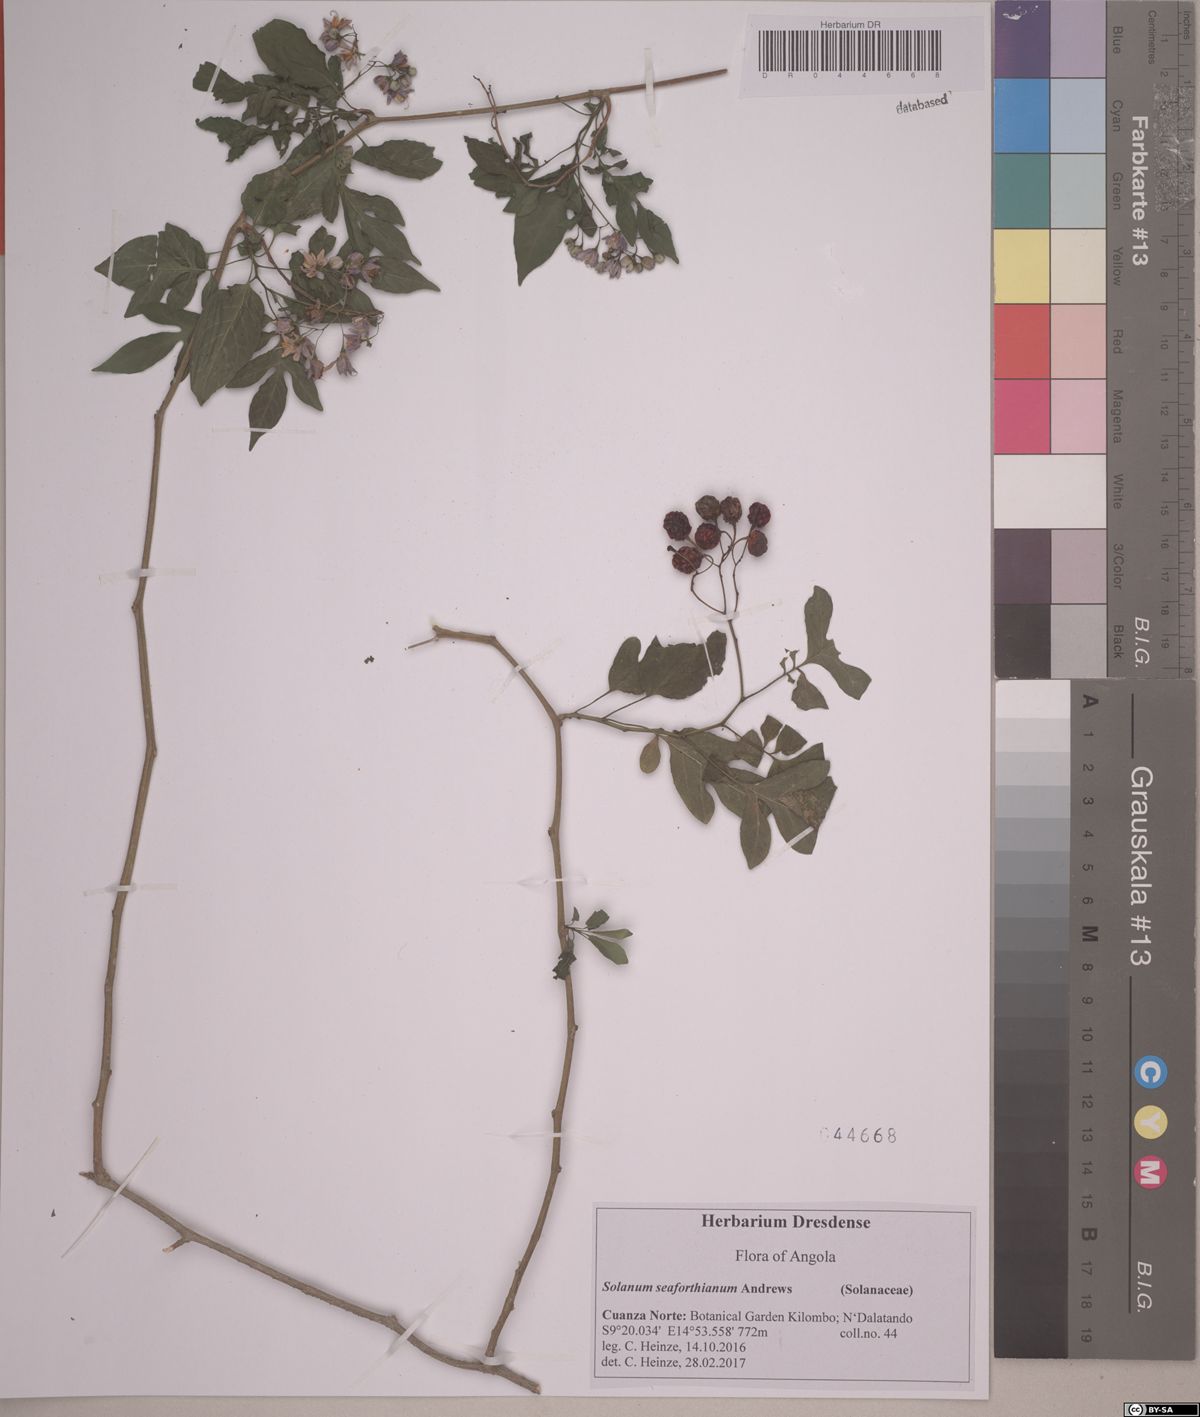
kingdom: Plantae
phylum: Tracheophyta
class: Magnoliopsida
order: Solanales
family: Solanaceae
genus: Solanum
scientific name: Solanum
